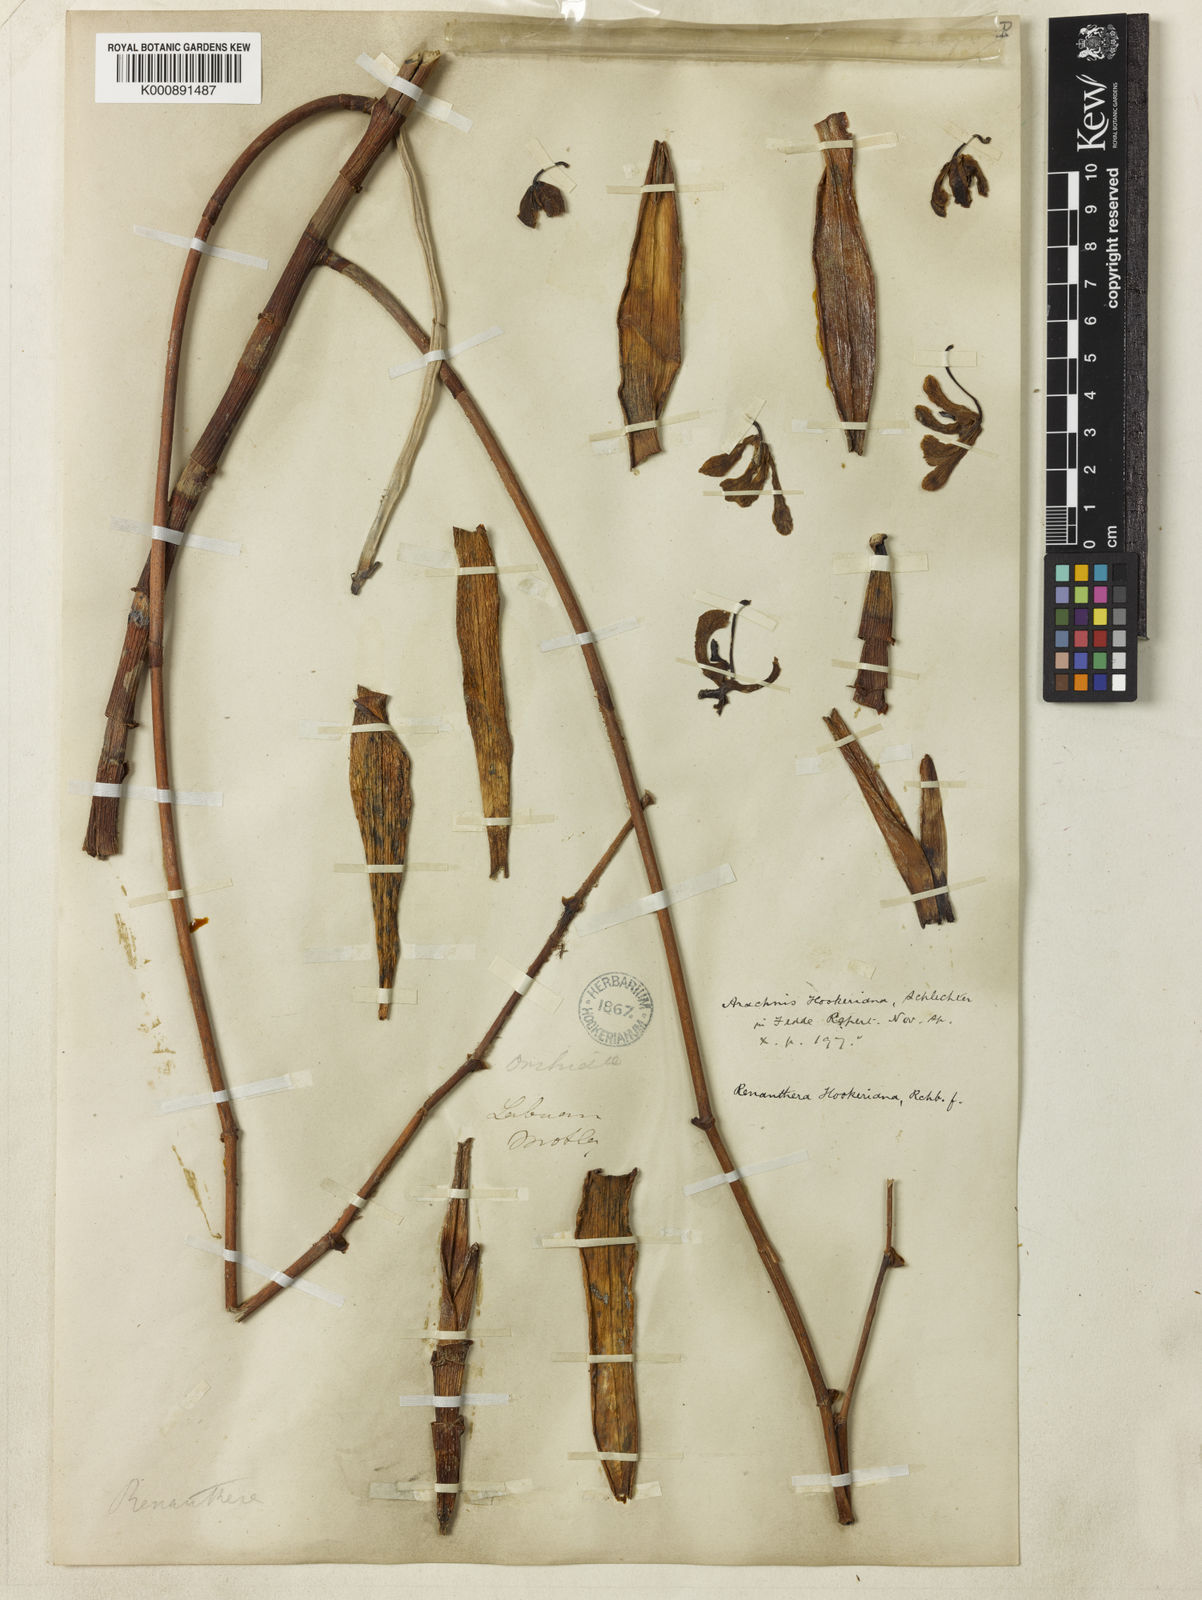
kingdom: Plantae
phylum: Tracheophyta
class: Liliopsida
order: Asparagales
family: Orchidaceae
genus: Arachnis
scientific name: Arachnis hookeriana
